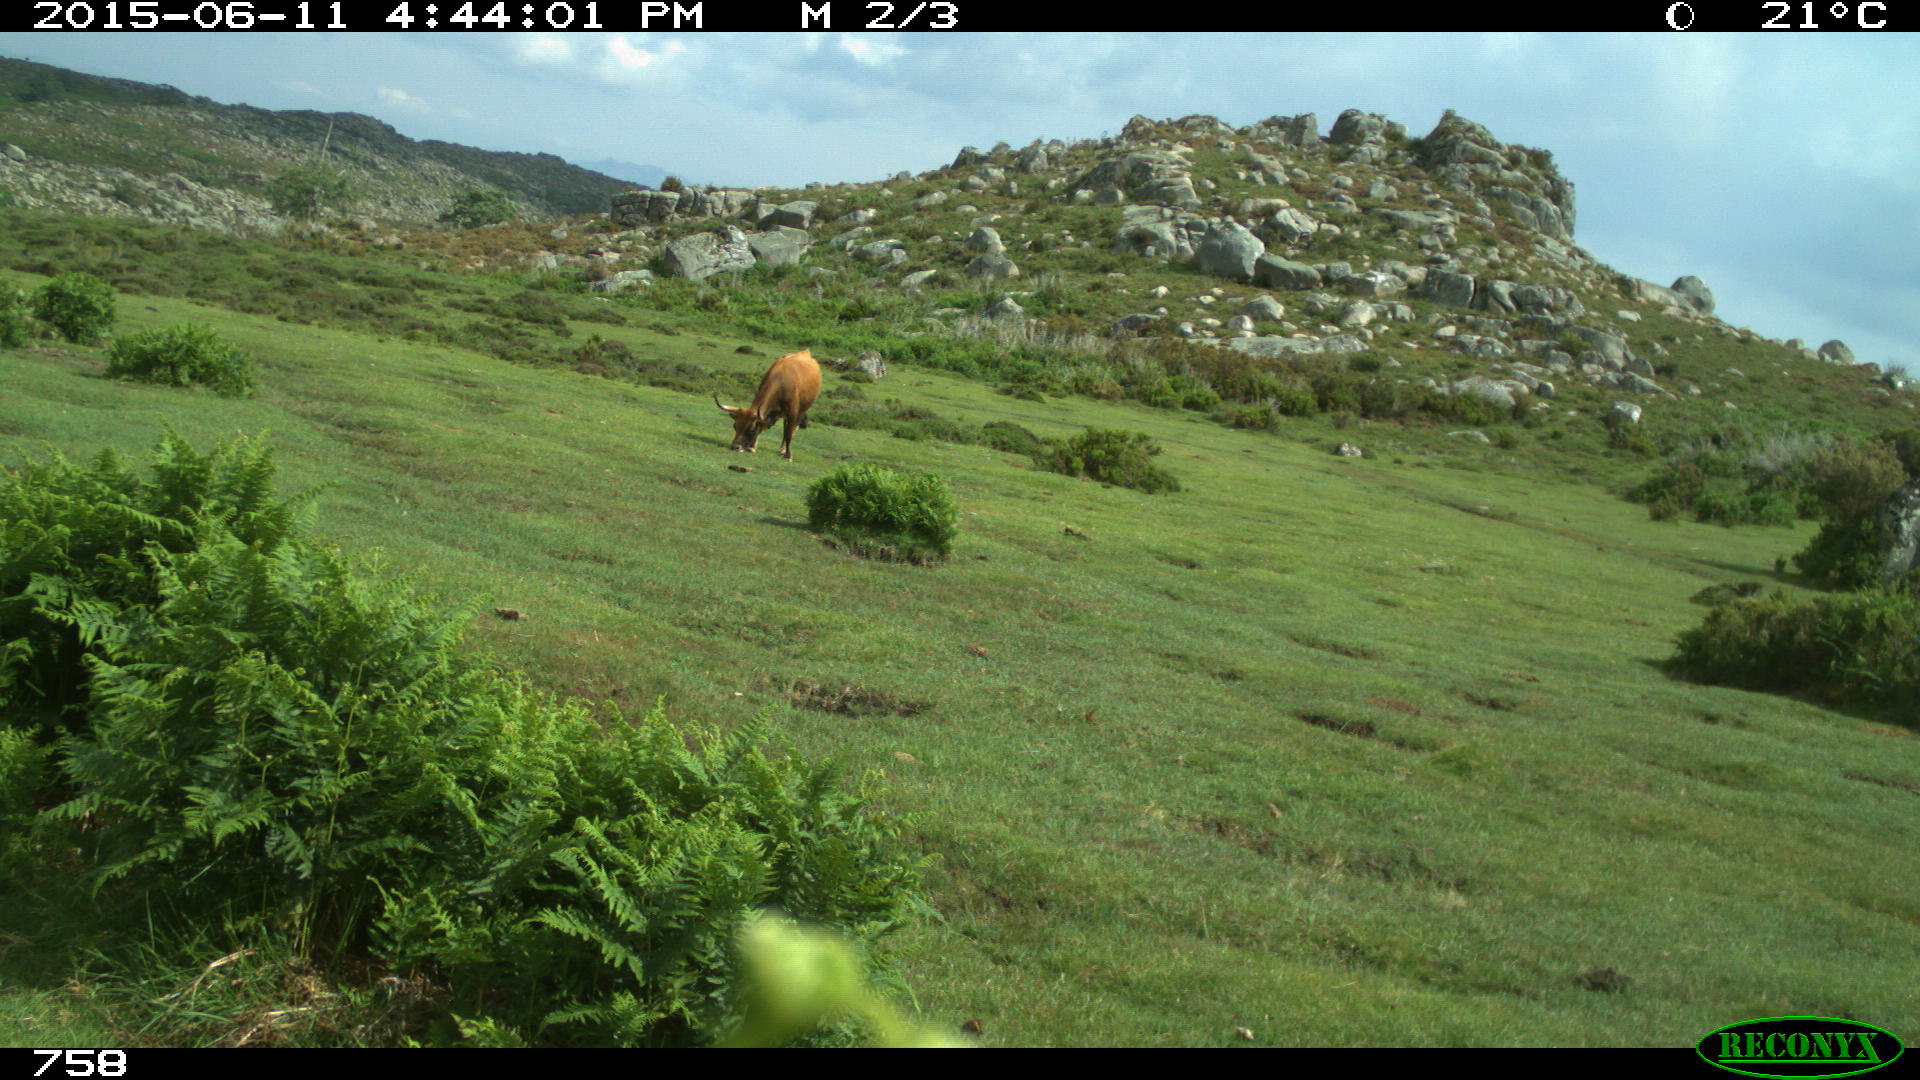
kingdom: Animalia
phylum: Chordata
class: Mammalia
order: Artiodactyla
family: Bovidae
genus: Bos
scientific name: Bos taurus
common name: Domesticated cattle
